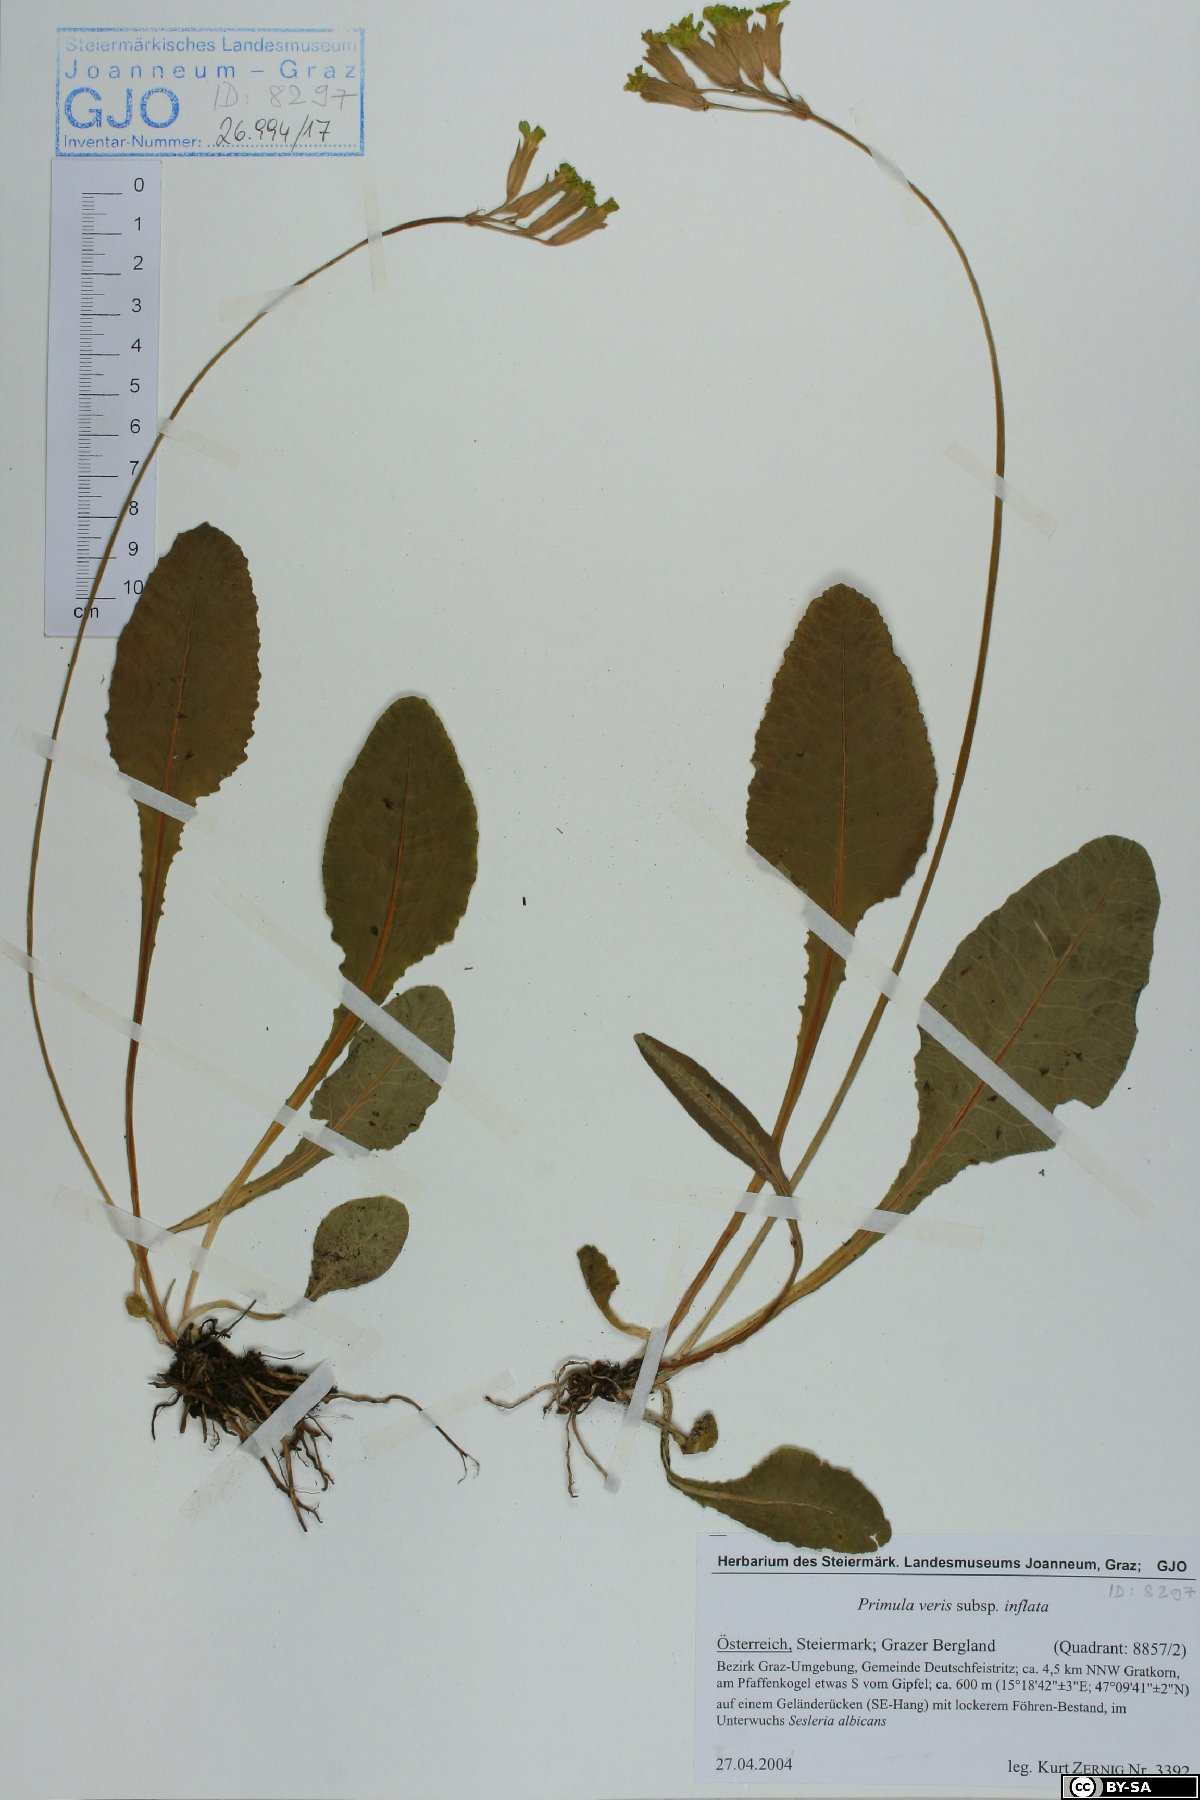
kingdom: Plantae
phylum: Tracheophyta
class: Magnoliopsida
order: Ericales
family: Primulaceae
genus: Primula
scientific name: Primula veris
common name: Cowslip
